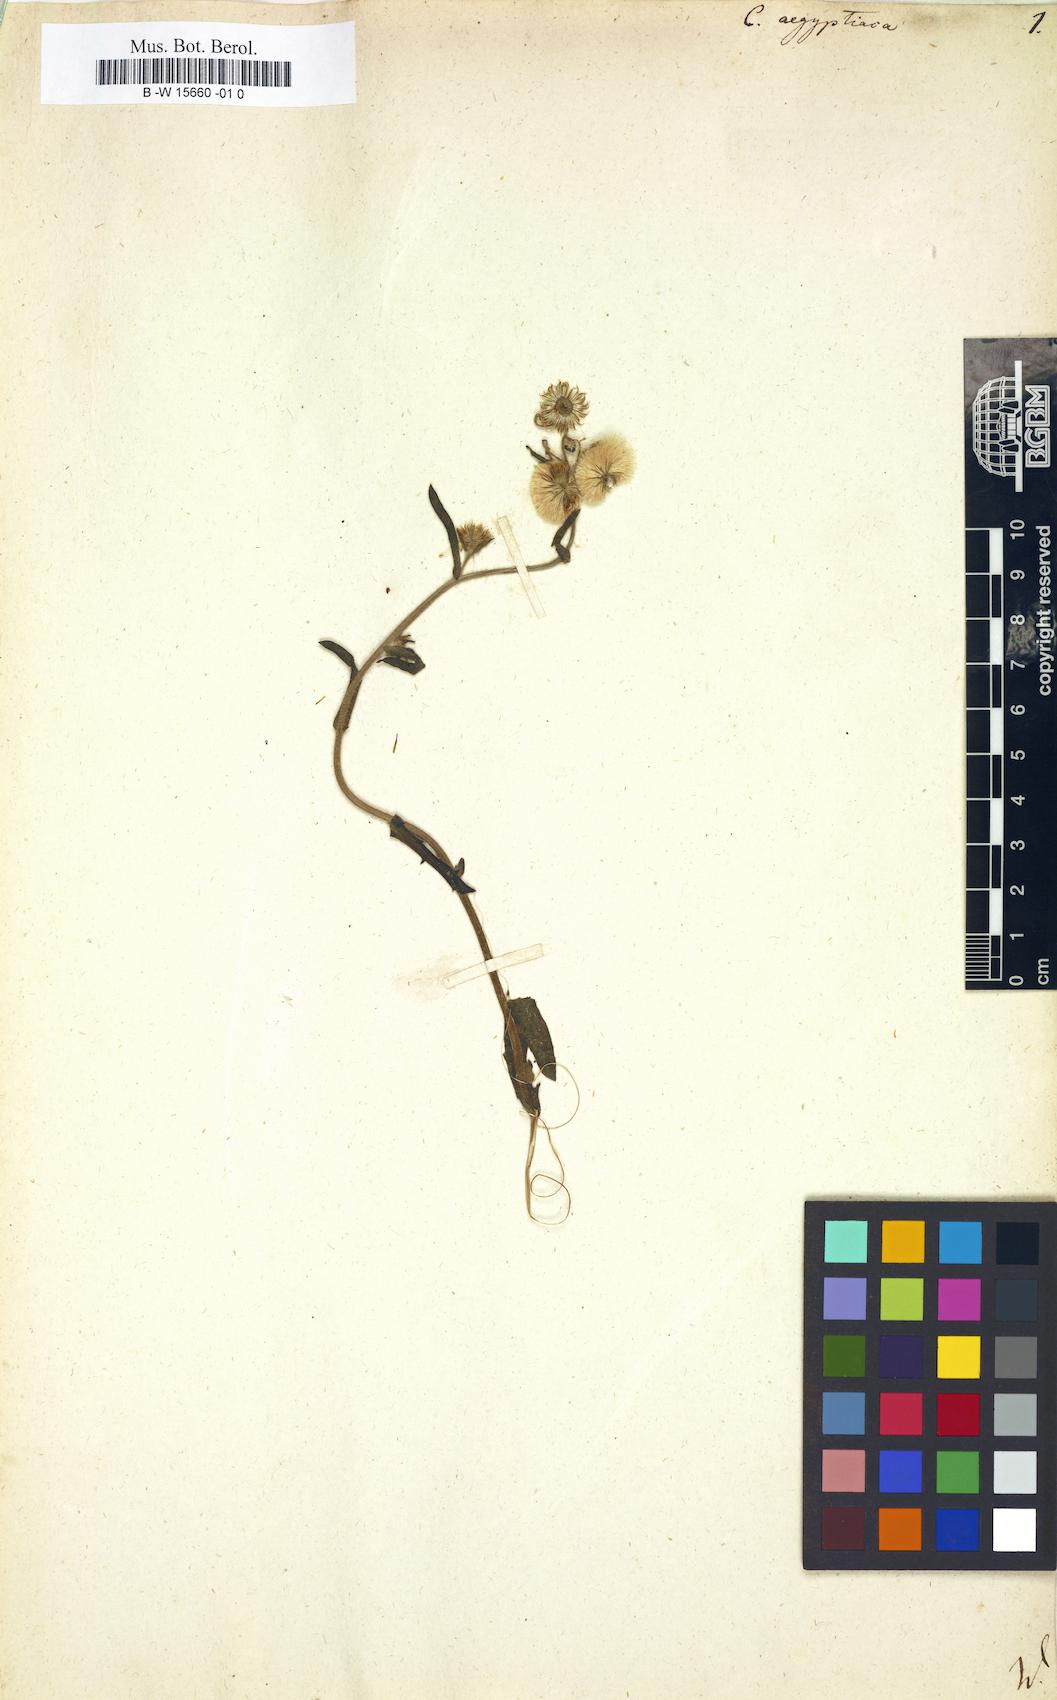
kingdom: Plantae
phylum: Tracheophyta
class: Magnoliopsida
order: Asterales
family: Asteraceae
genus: Nidorella
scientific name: Nidorella aegyptiaca
